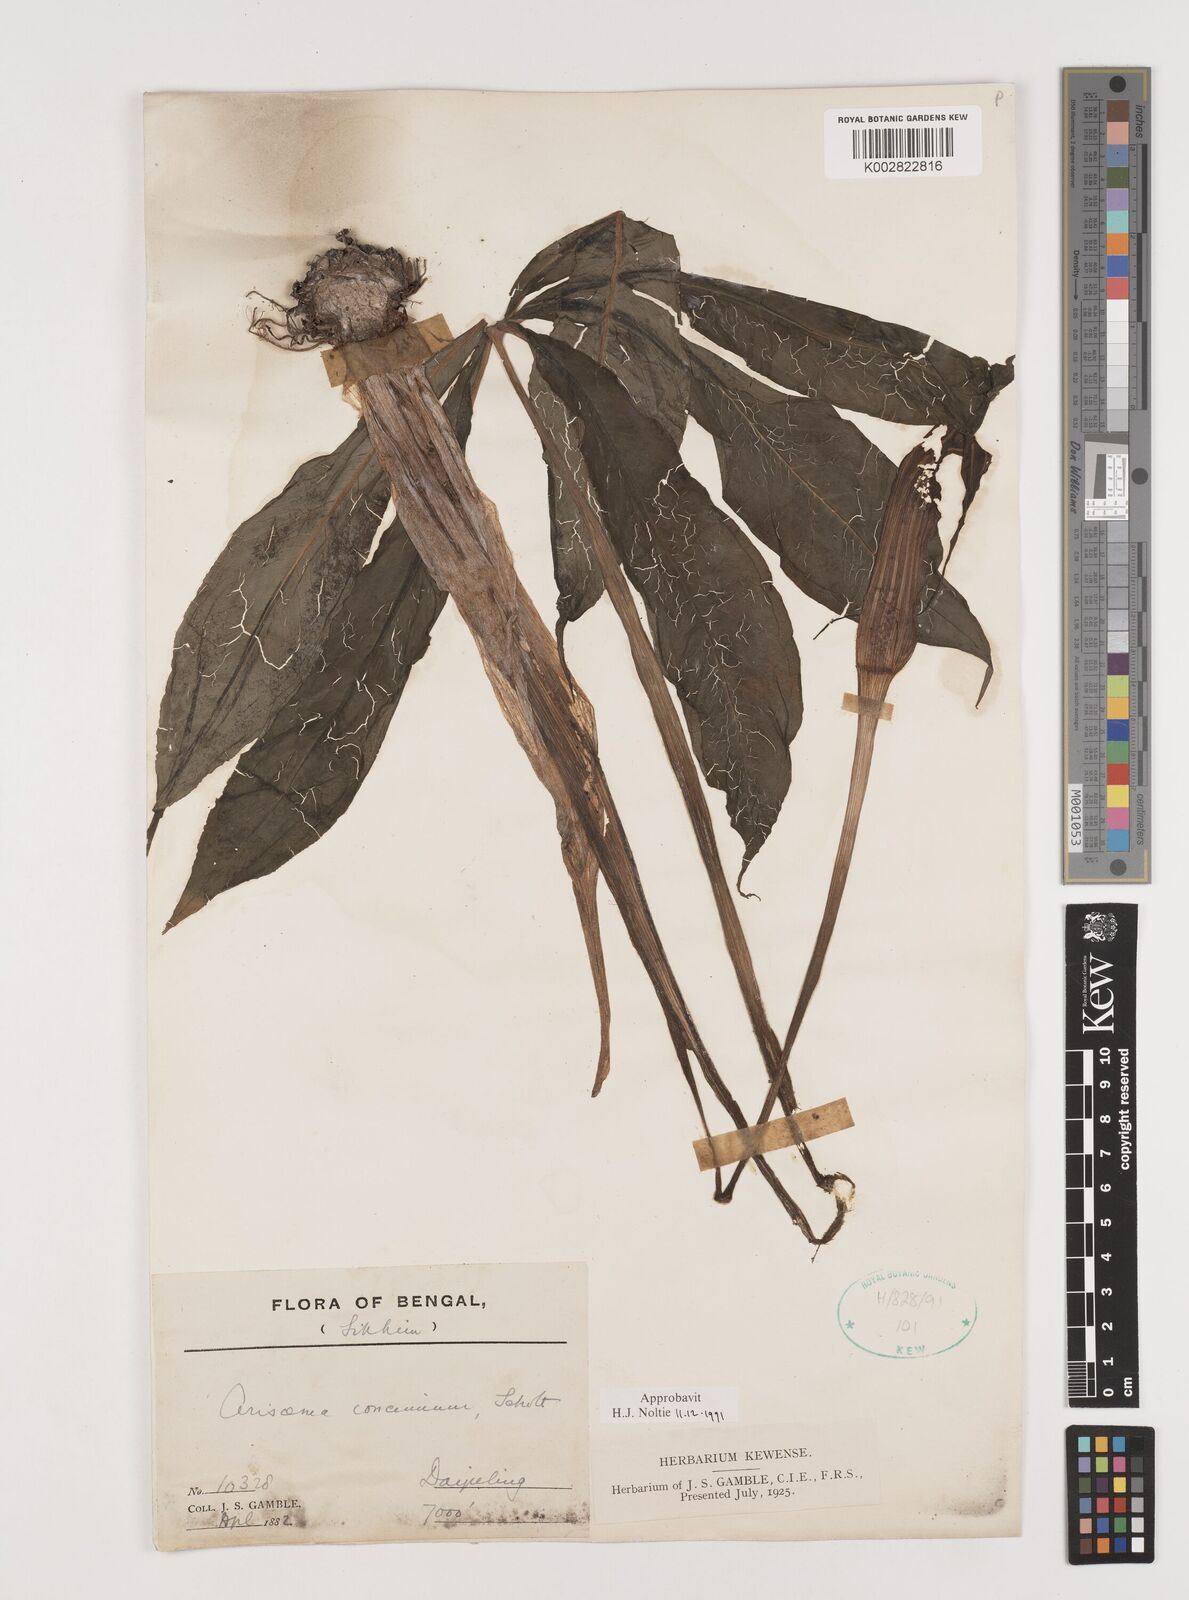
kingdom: Plantae
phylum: Tracheophyta
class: Liliopsida
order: Alismatales
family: Araceae
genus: Arisaema
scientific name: Arisaema concinnum
